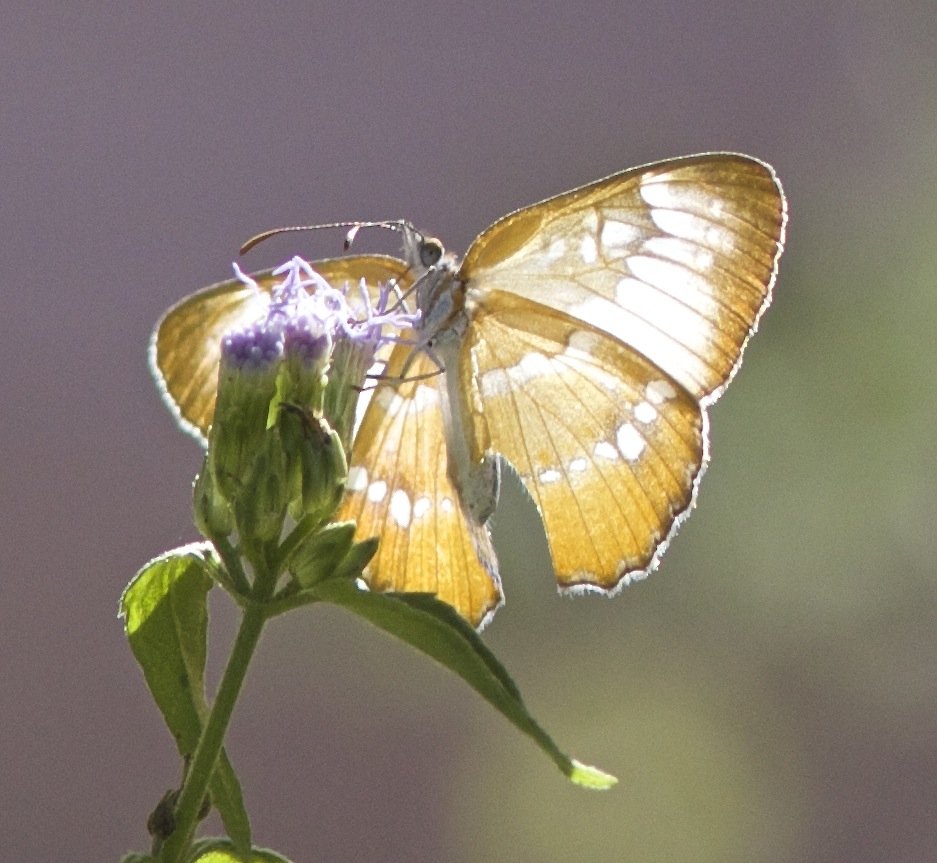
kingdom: Animalia
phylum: Arthropoda
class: Insecta
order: Lepidoptera
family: Nymphalidae
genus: Mestra
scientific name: Mestra amymone
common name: Common Mestra
